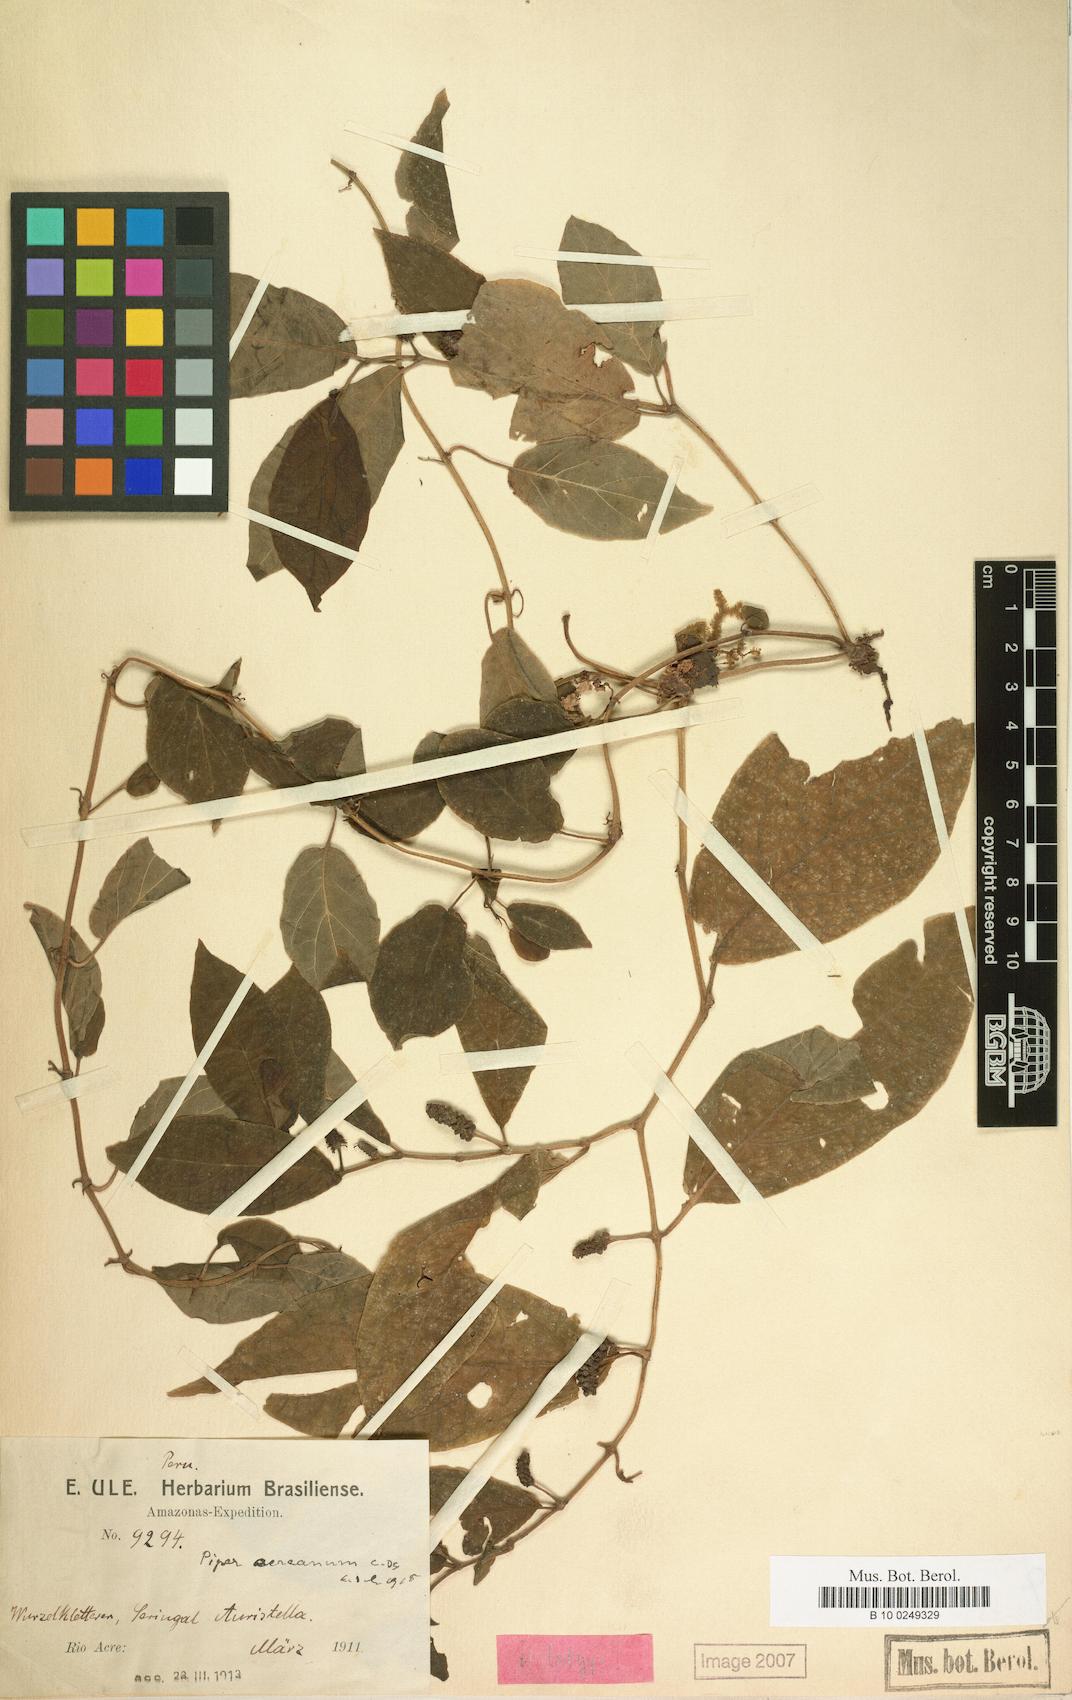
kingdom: Plantae
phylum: Tracheophyta
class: Magnoliopsida
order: Piperales
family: Piperaceae
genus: Piper
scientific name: Piper nematanthera
